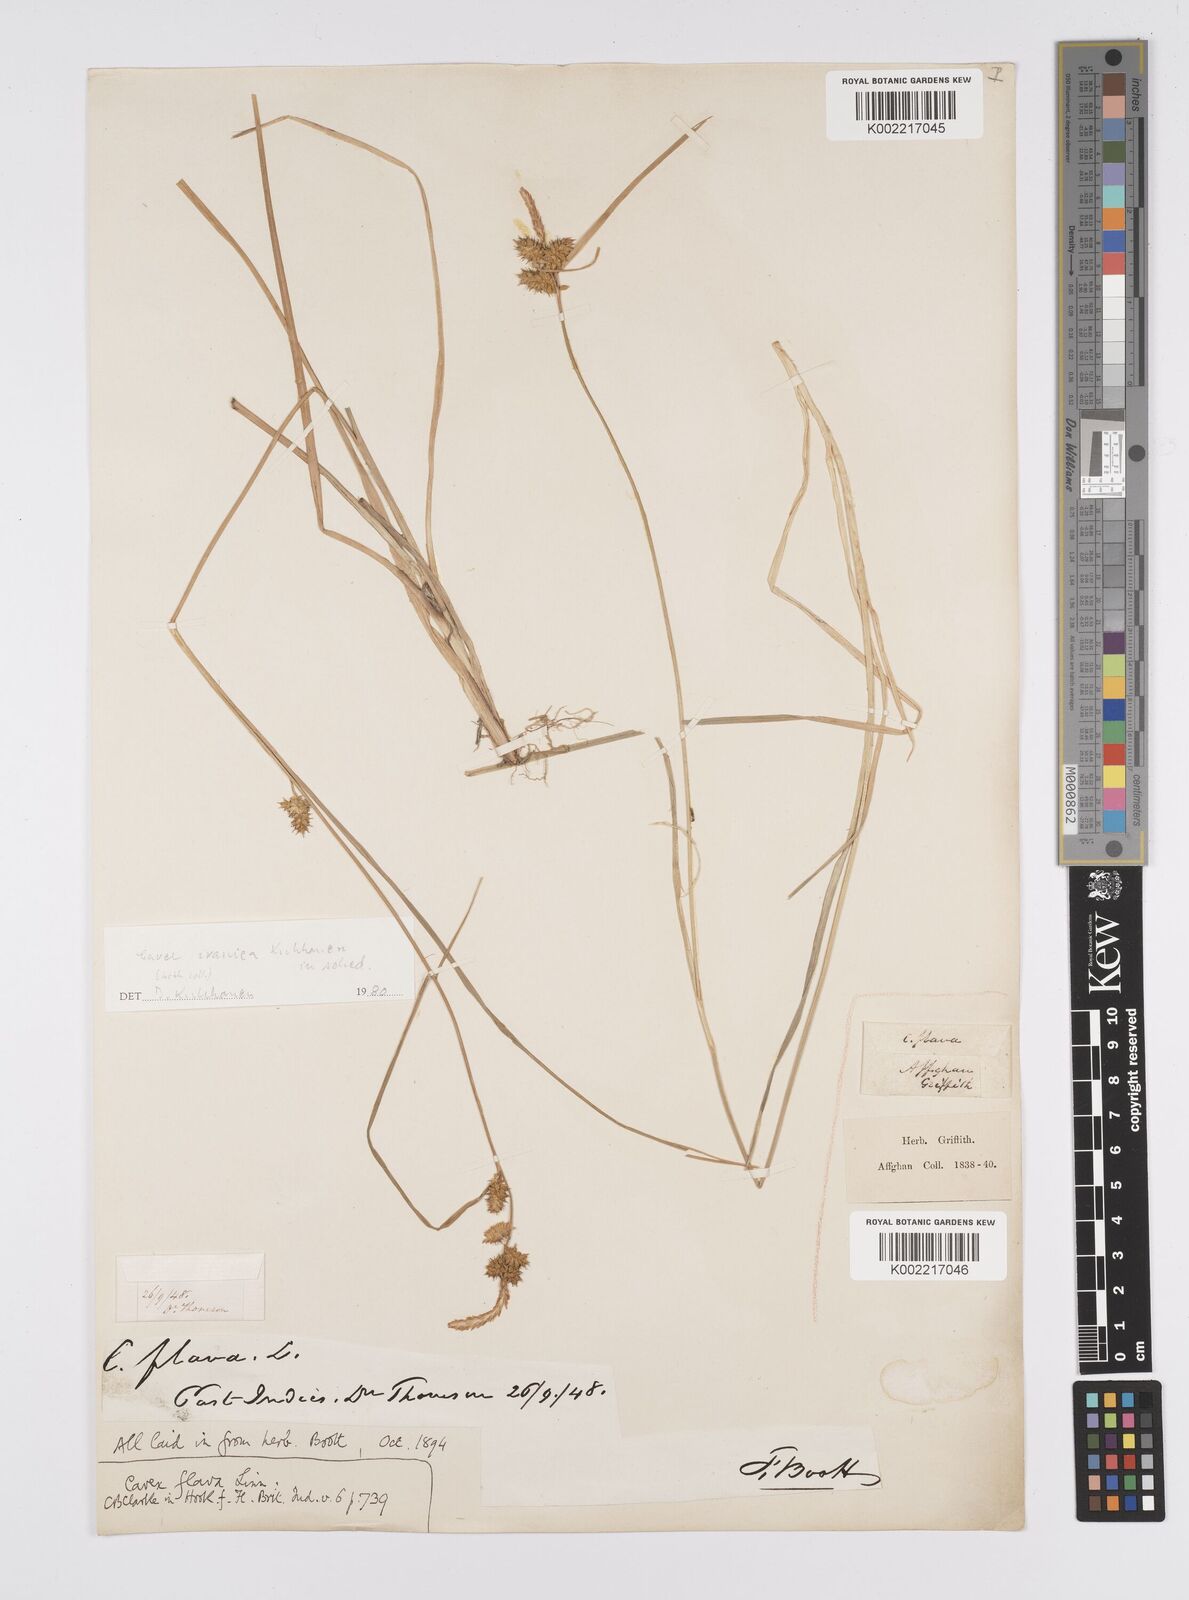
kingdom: Plantae
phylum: Tracheophyta
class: Liliopsida
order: Poales
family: Cyperaceae
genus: Carex
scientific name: Carex
